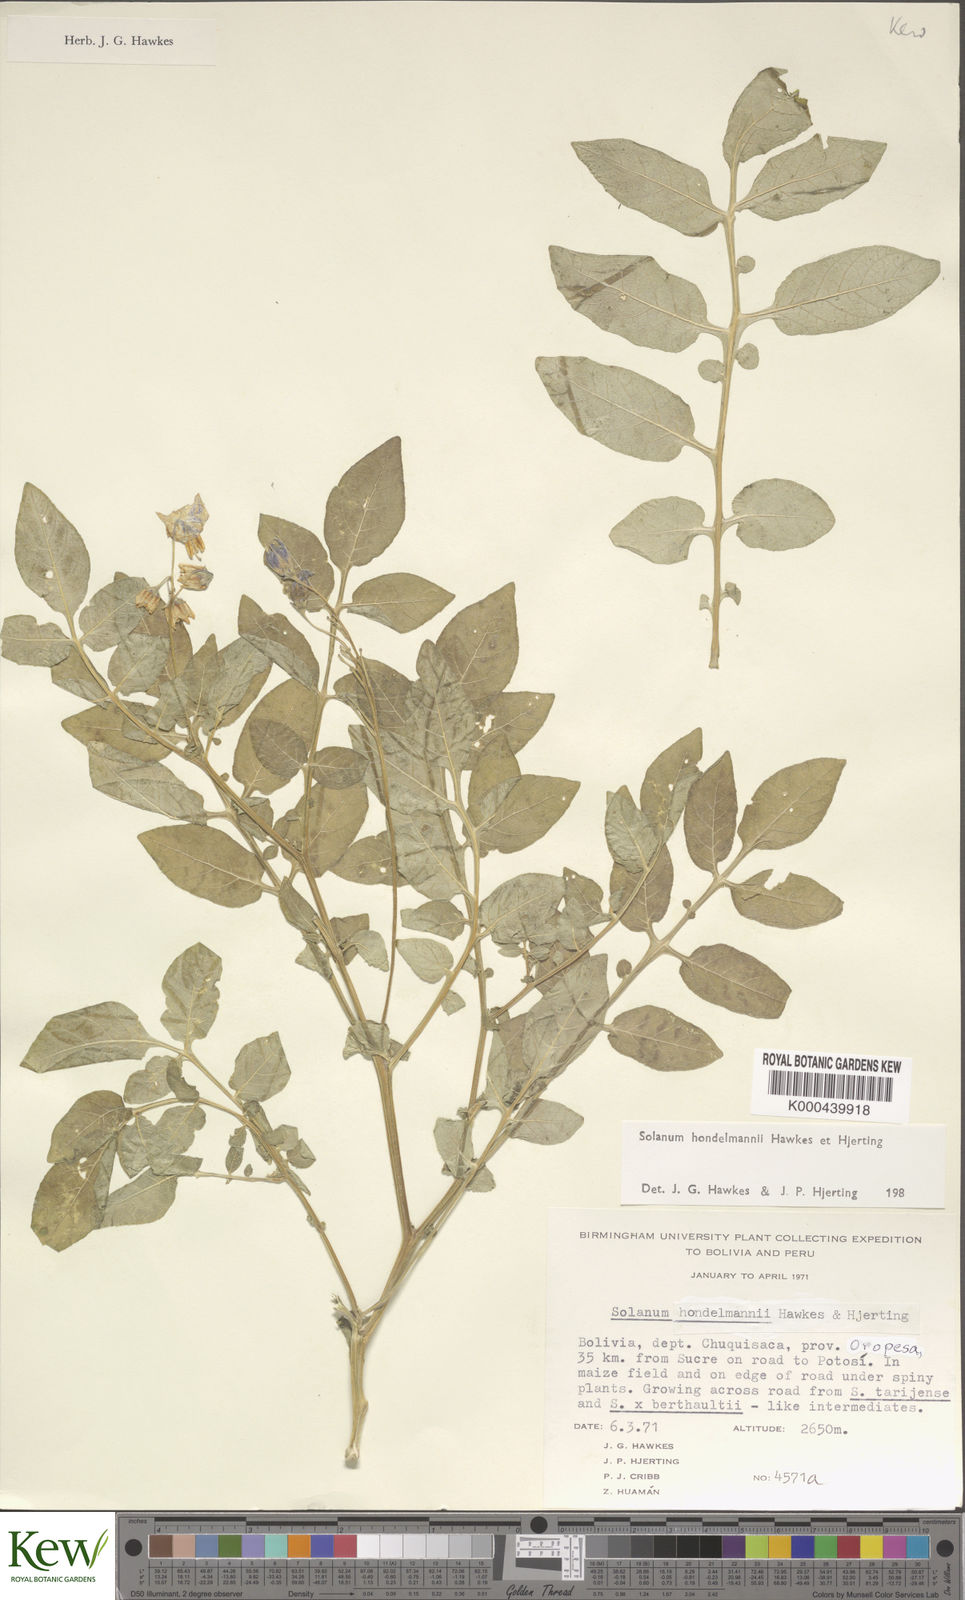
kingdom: Plantae
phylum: Tracheophyta
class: Magnoliopsida
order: Solanales
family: Solanaceae
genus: Solanum
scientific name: Solanum brevicaule
